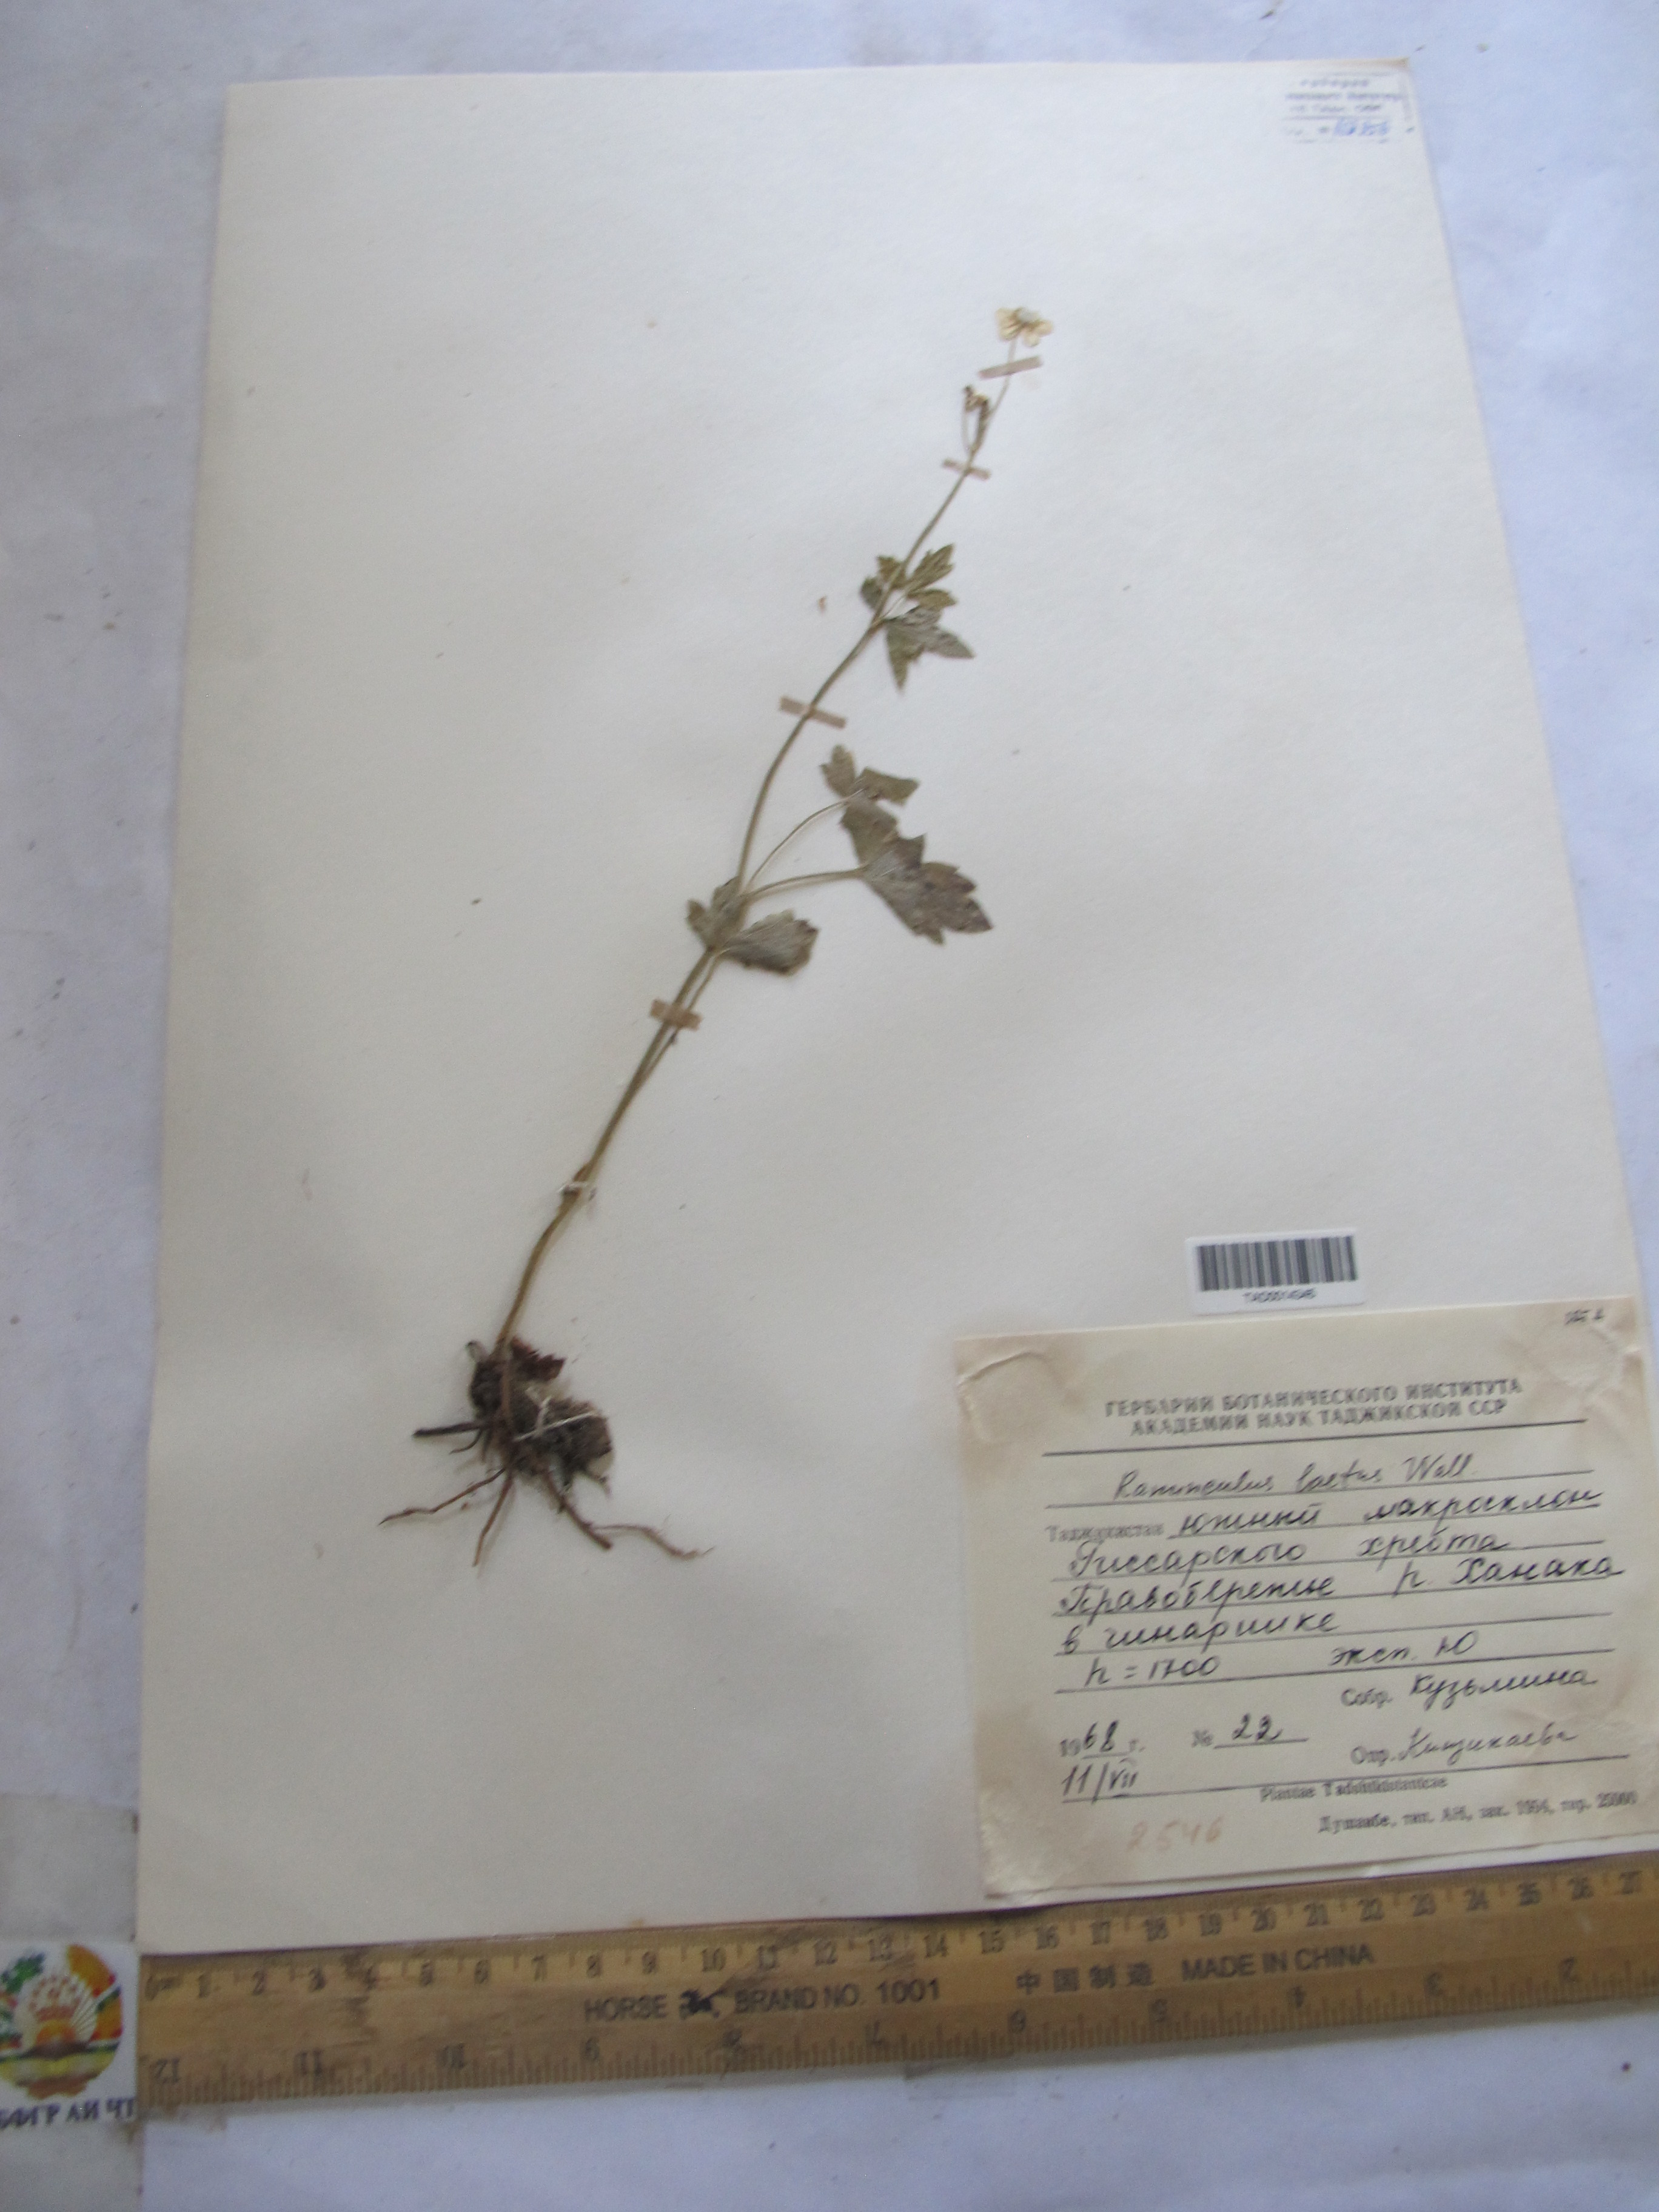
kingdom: Plantae
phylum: Tracheophyta
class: Magnoliopsida
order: Ranunculales
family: Ranunculaceae
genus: Ranunculus
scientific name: Ranunculus distans
